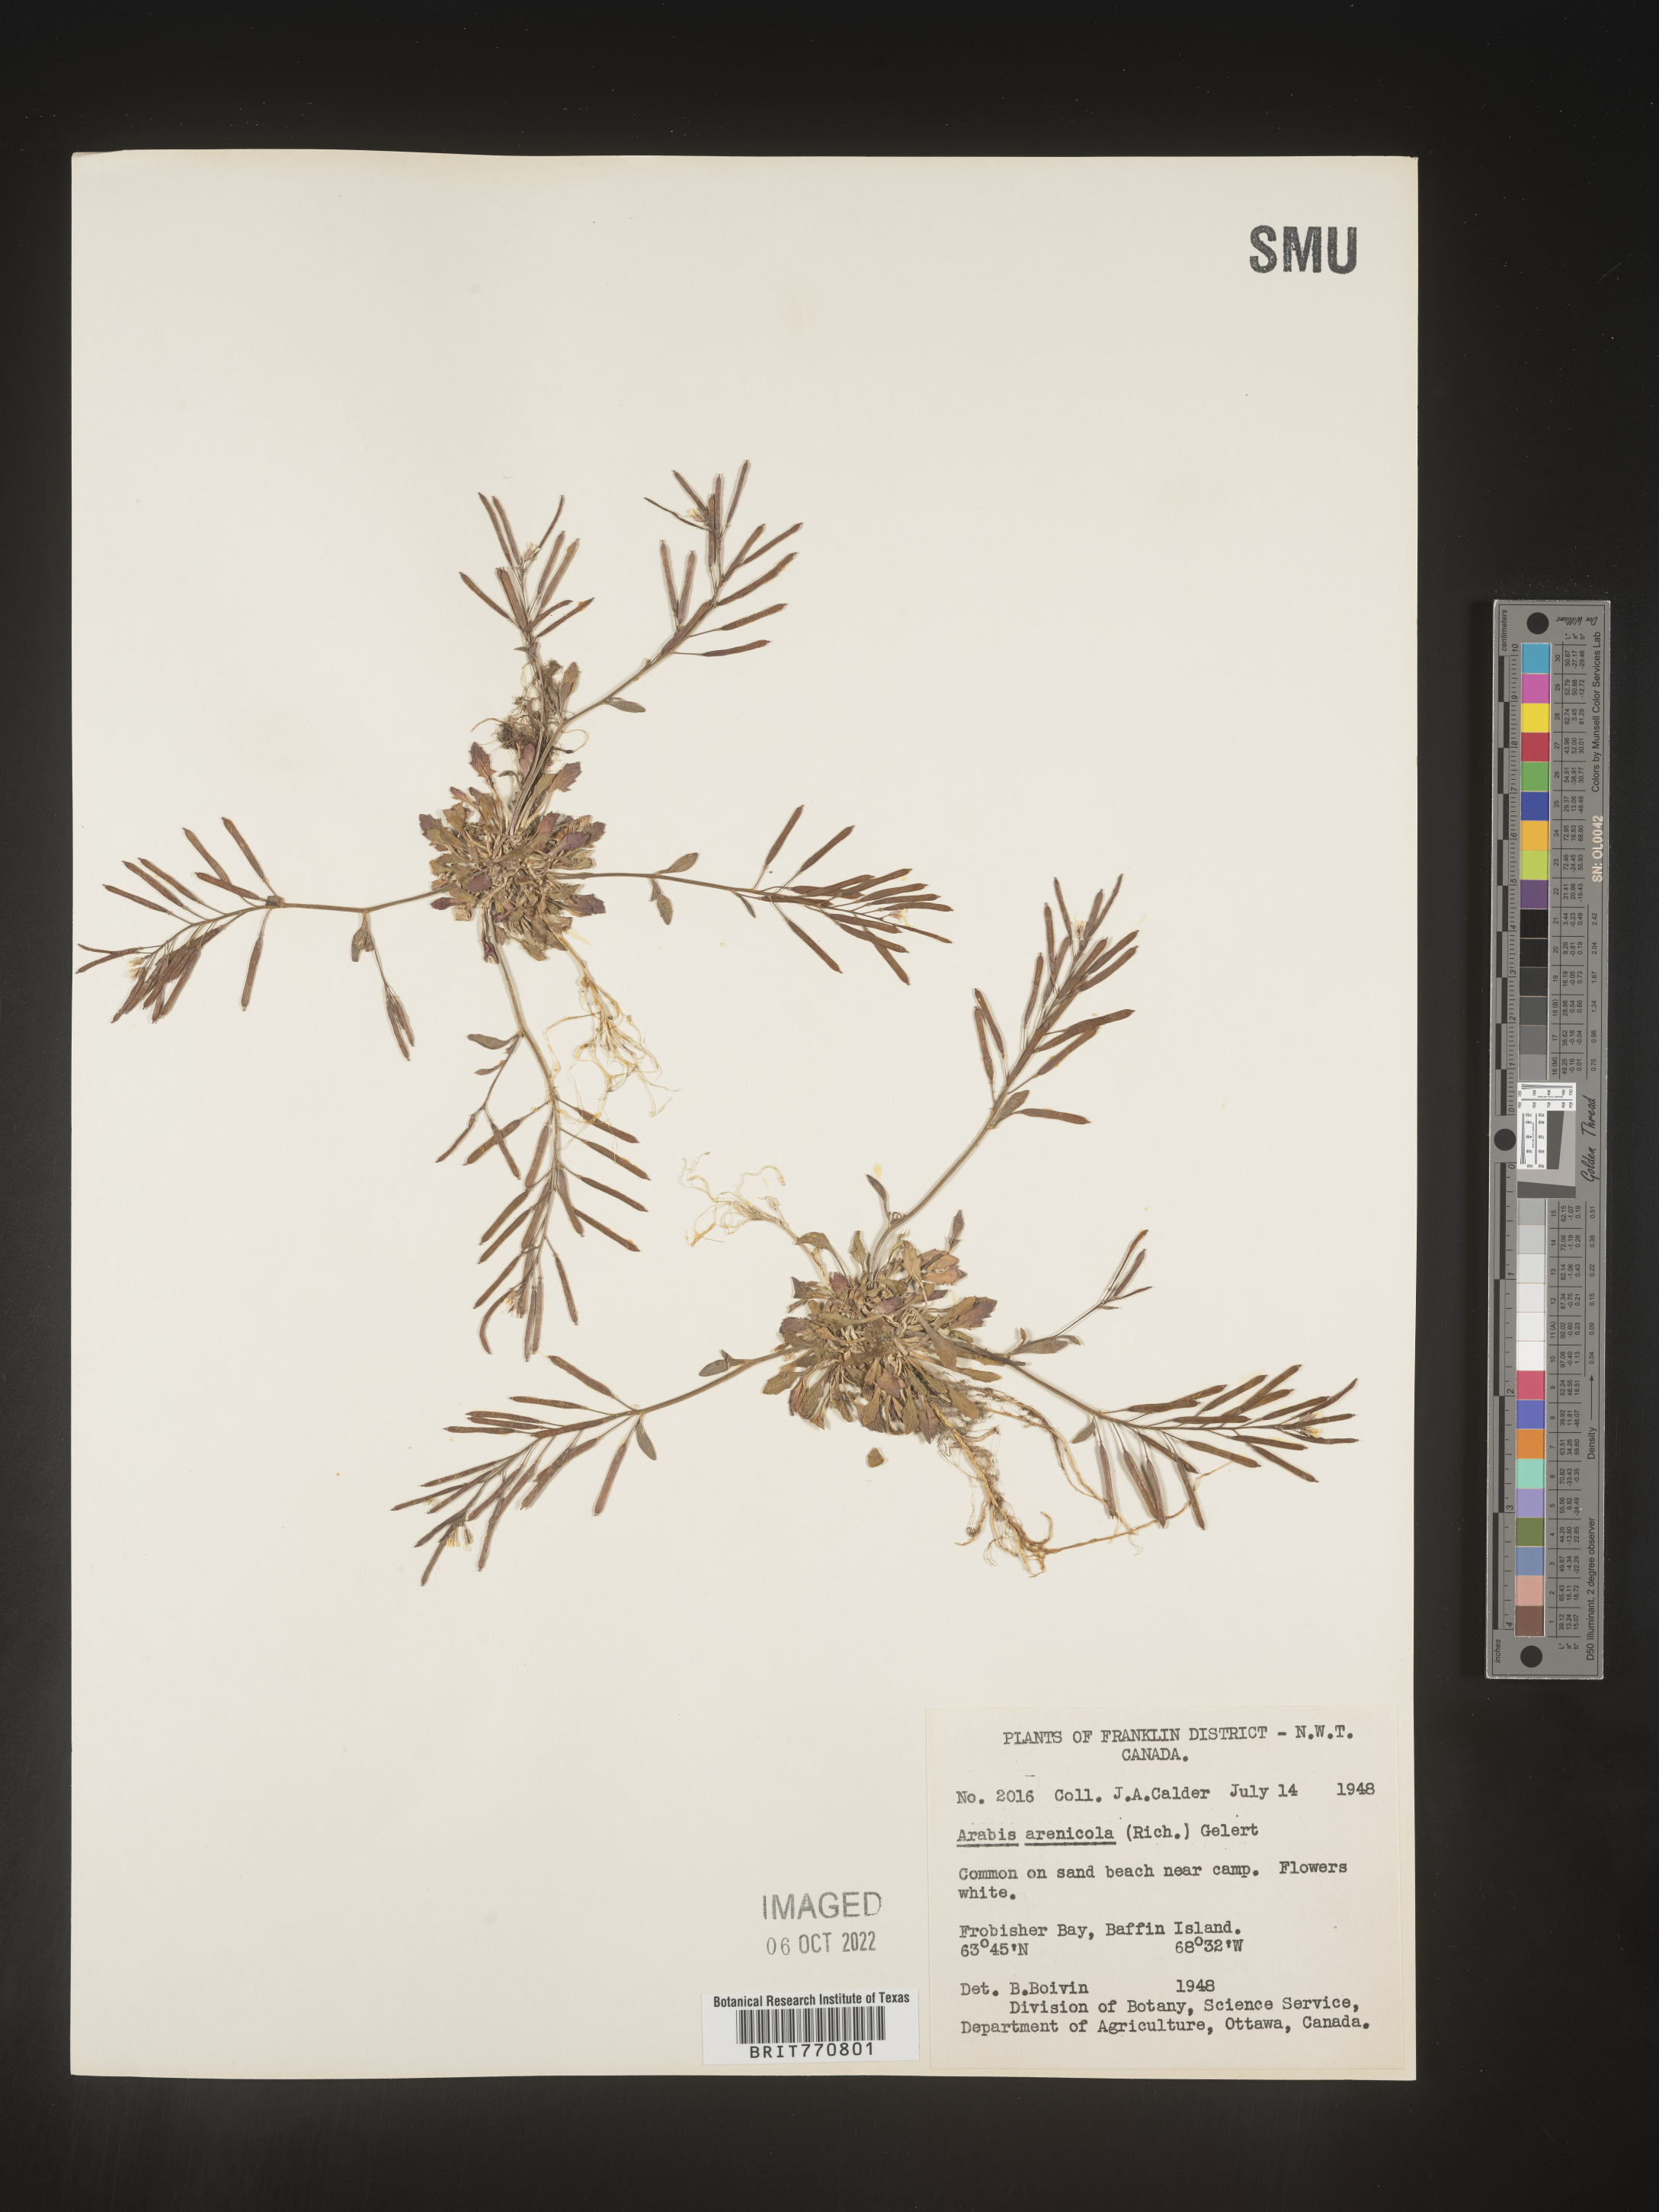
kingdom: Plantae
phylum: Tracheophyta
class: Magnoliopsida
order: Brassicales
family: Brassicaceae
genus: Arabis
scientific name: Arabis
